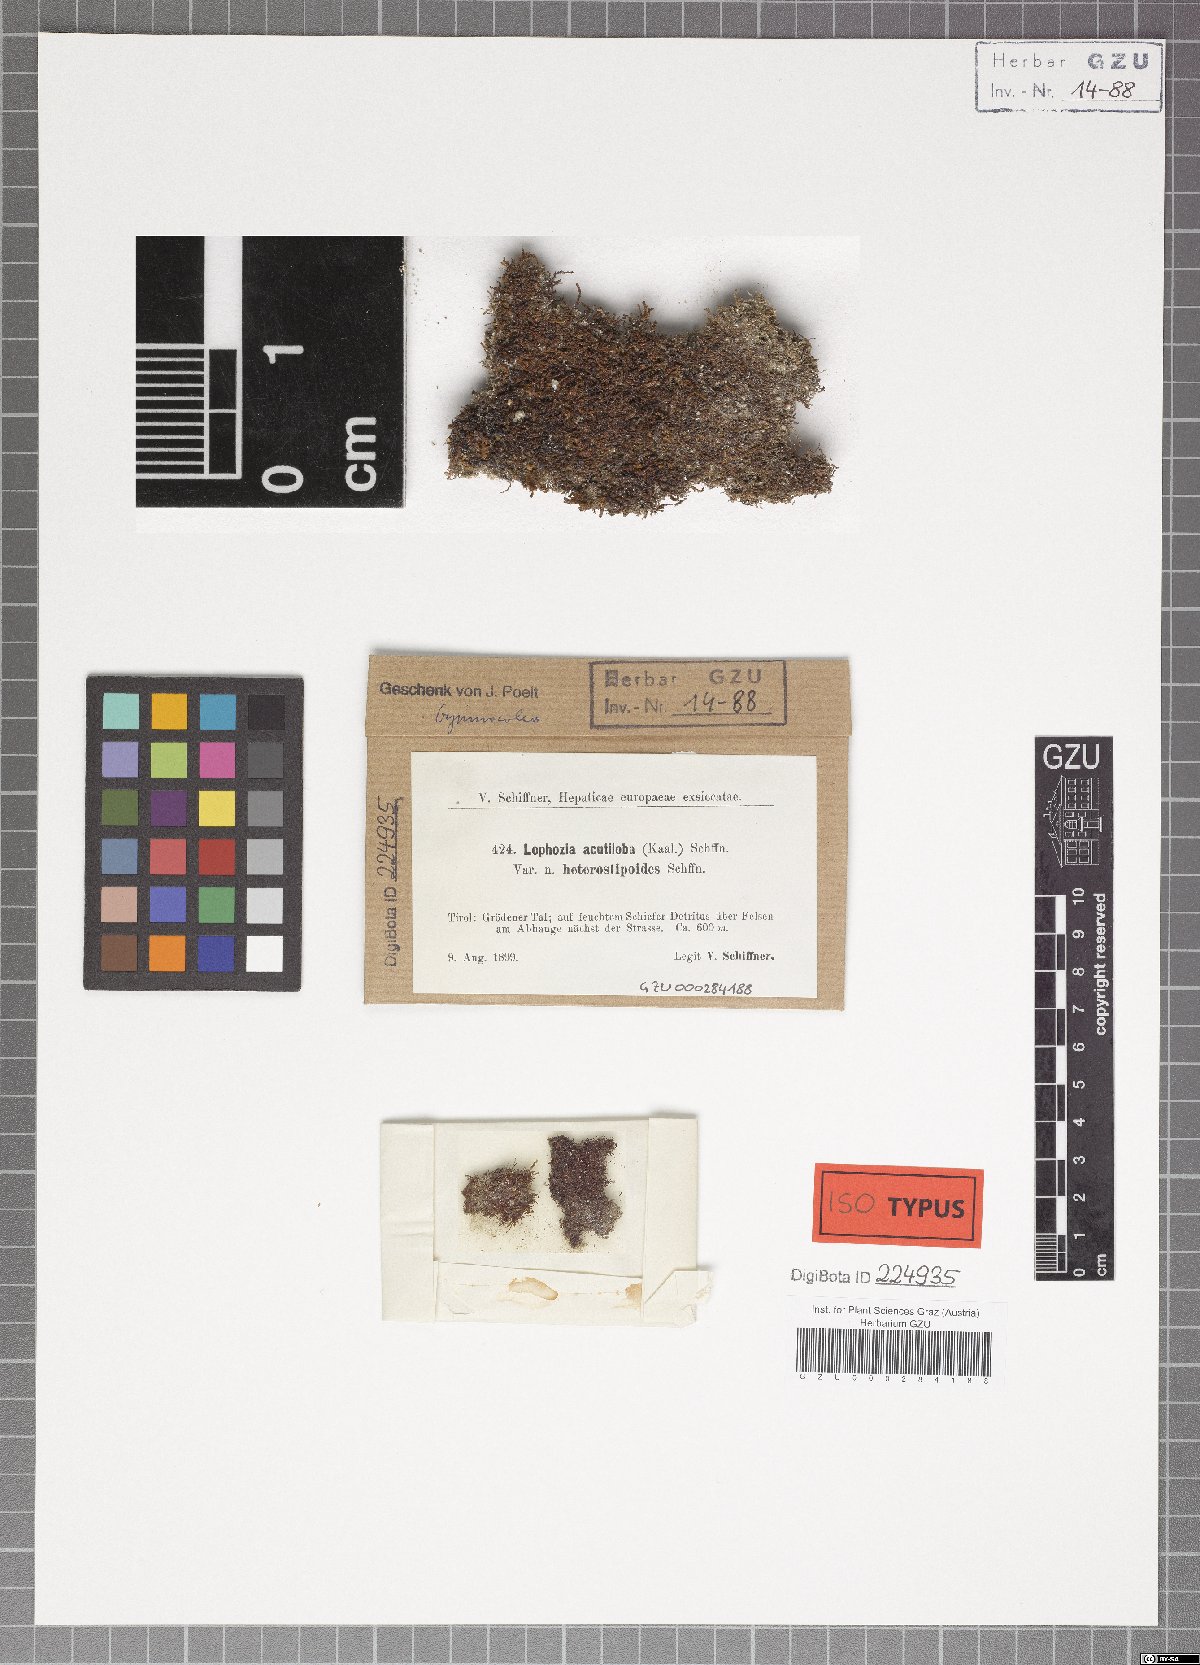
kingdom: Plantae
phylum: Marchantiophyta
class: Jungermanniopsida
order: Jungermanniales
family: Anastrophyllaceae
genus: Gymnocolea
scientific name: Gymnocolea inflata
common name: Inflated notchwort
